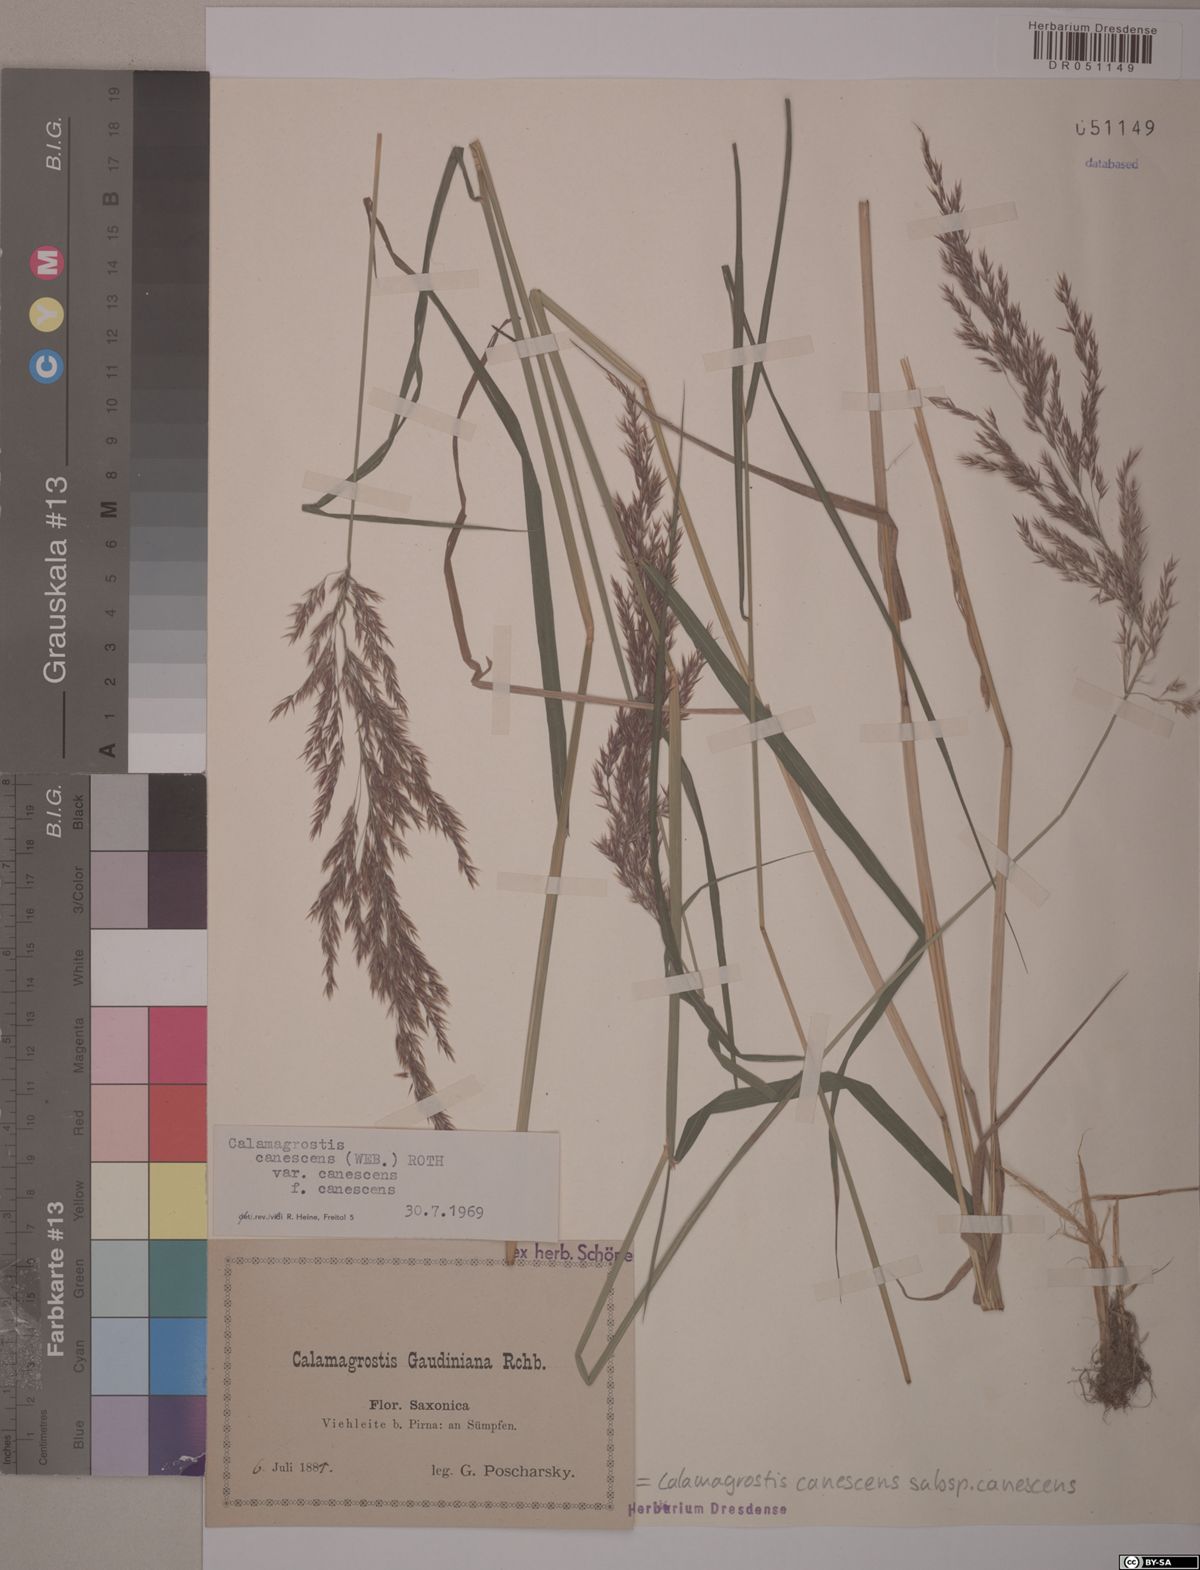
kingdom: Plantae
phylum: Tracheophyta
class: Liliopsida
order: Poales
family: Poaceae
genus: Calamagrostis
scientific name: Calamagrostis canescens
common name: Purple small-reed
